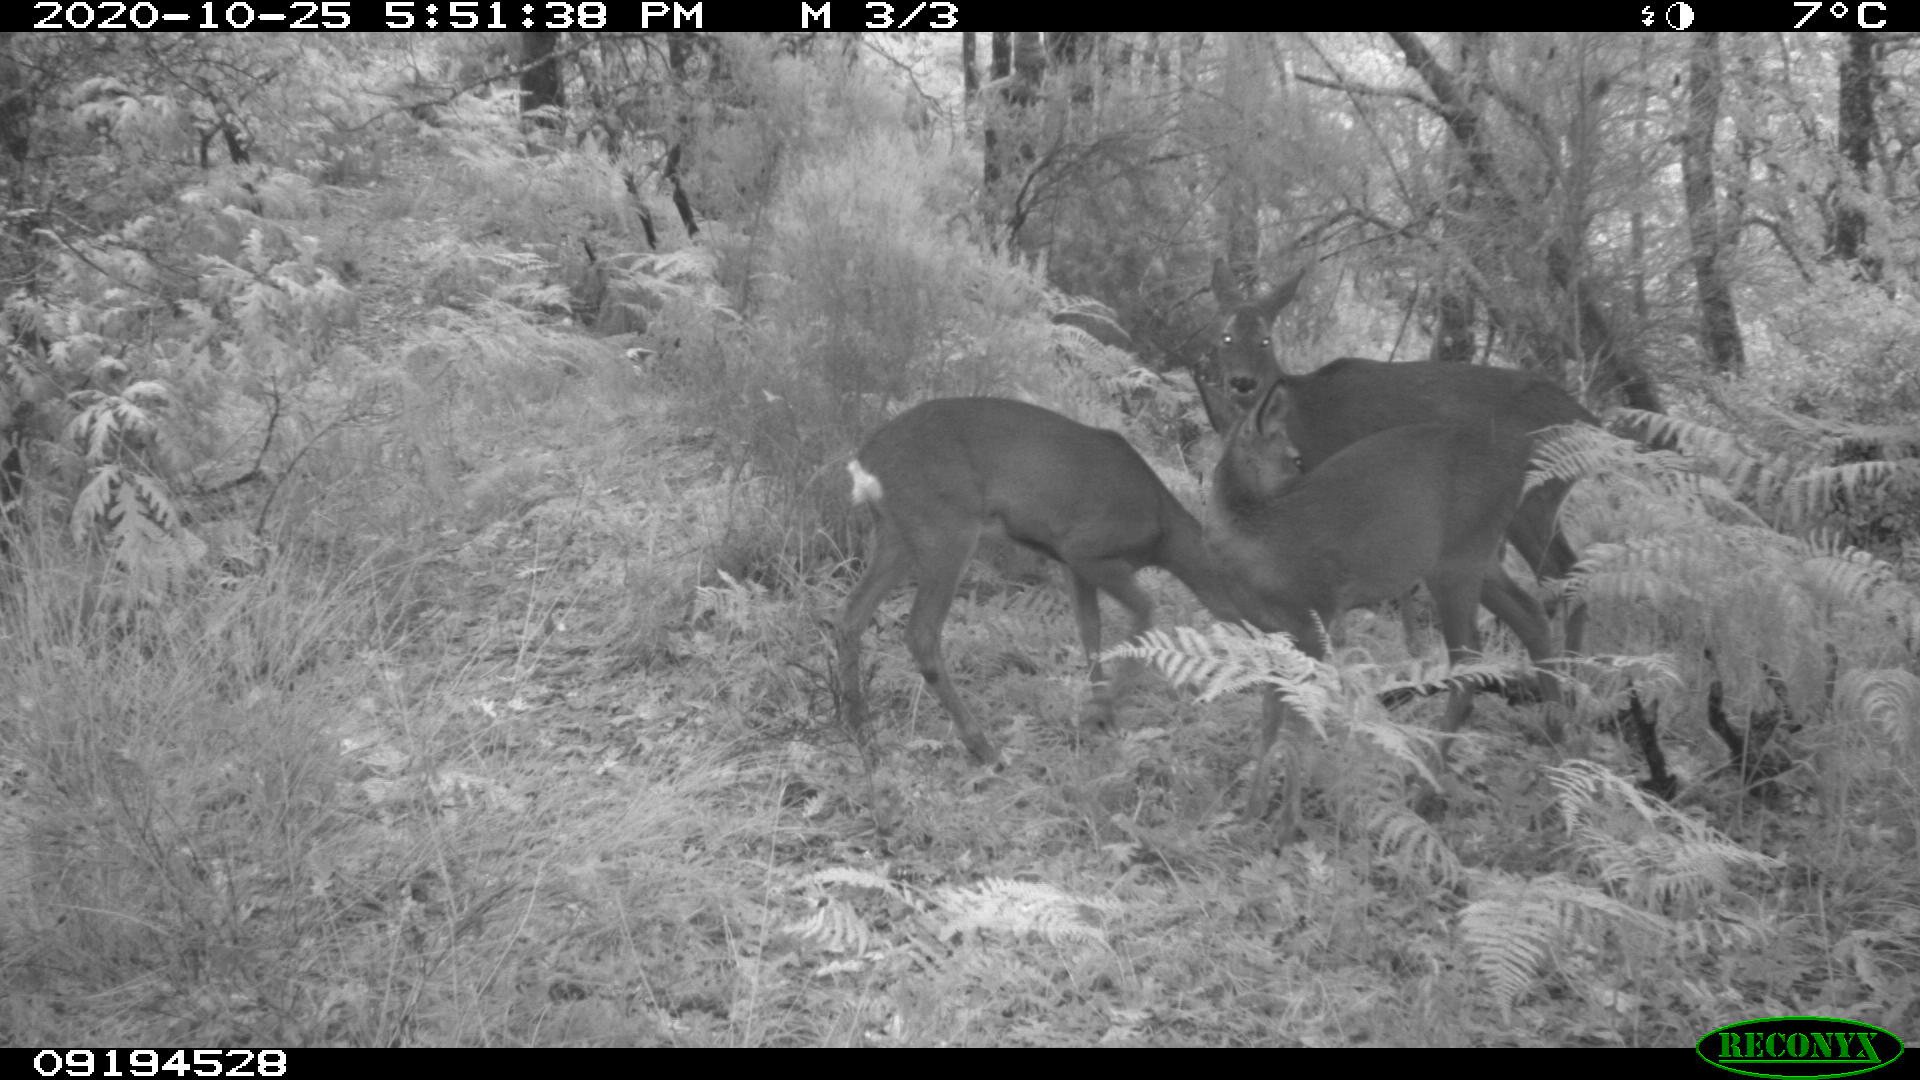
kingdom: Animalia
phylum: Chordata
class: Mammalia
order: Artiodactyla
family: Cervidae
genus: Capreolus
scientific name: Capreolus capreolus
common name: Western roe deer
